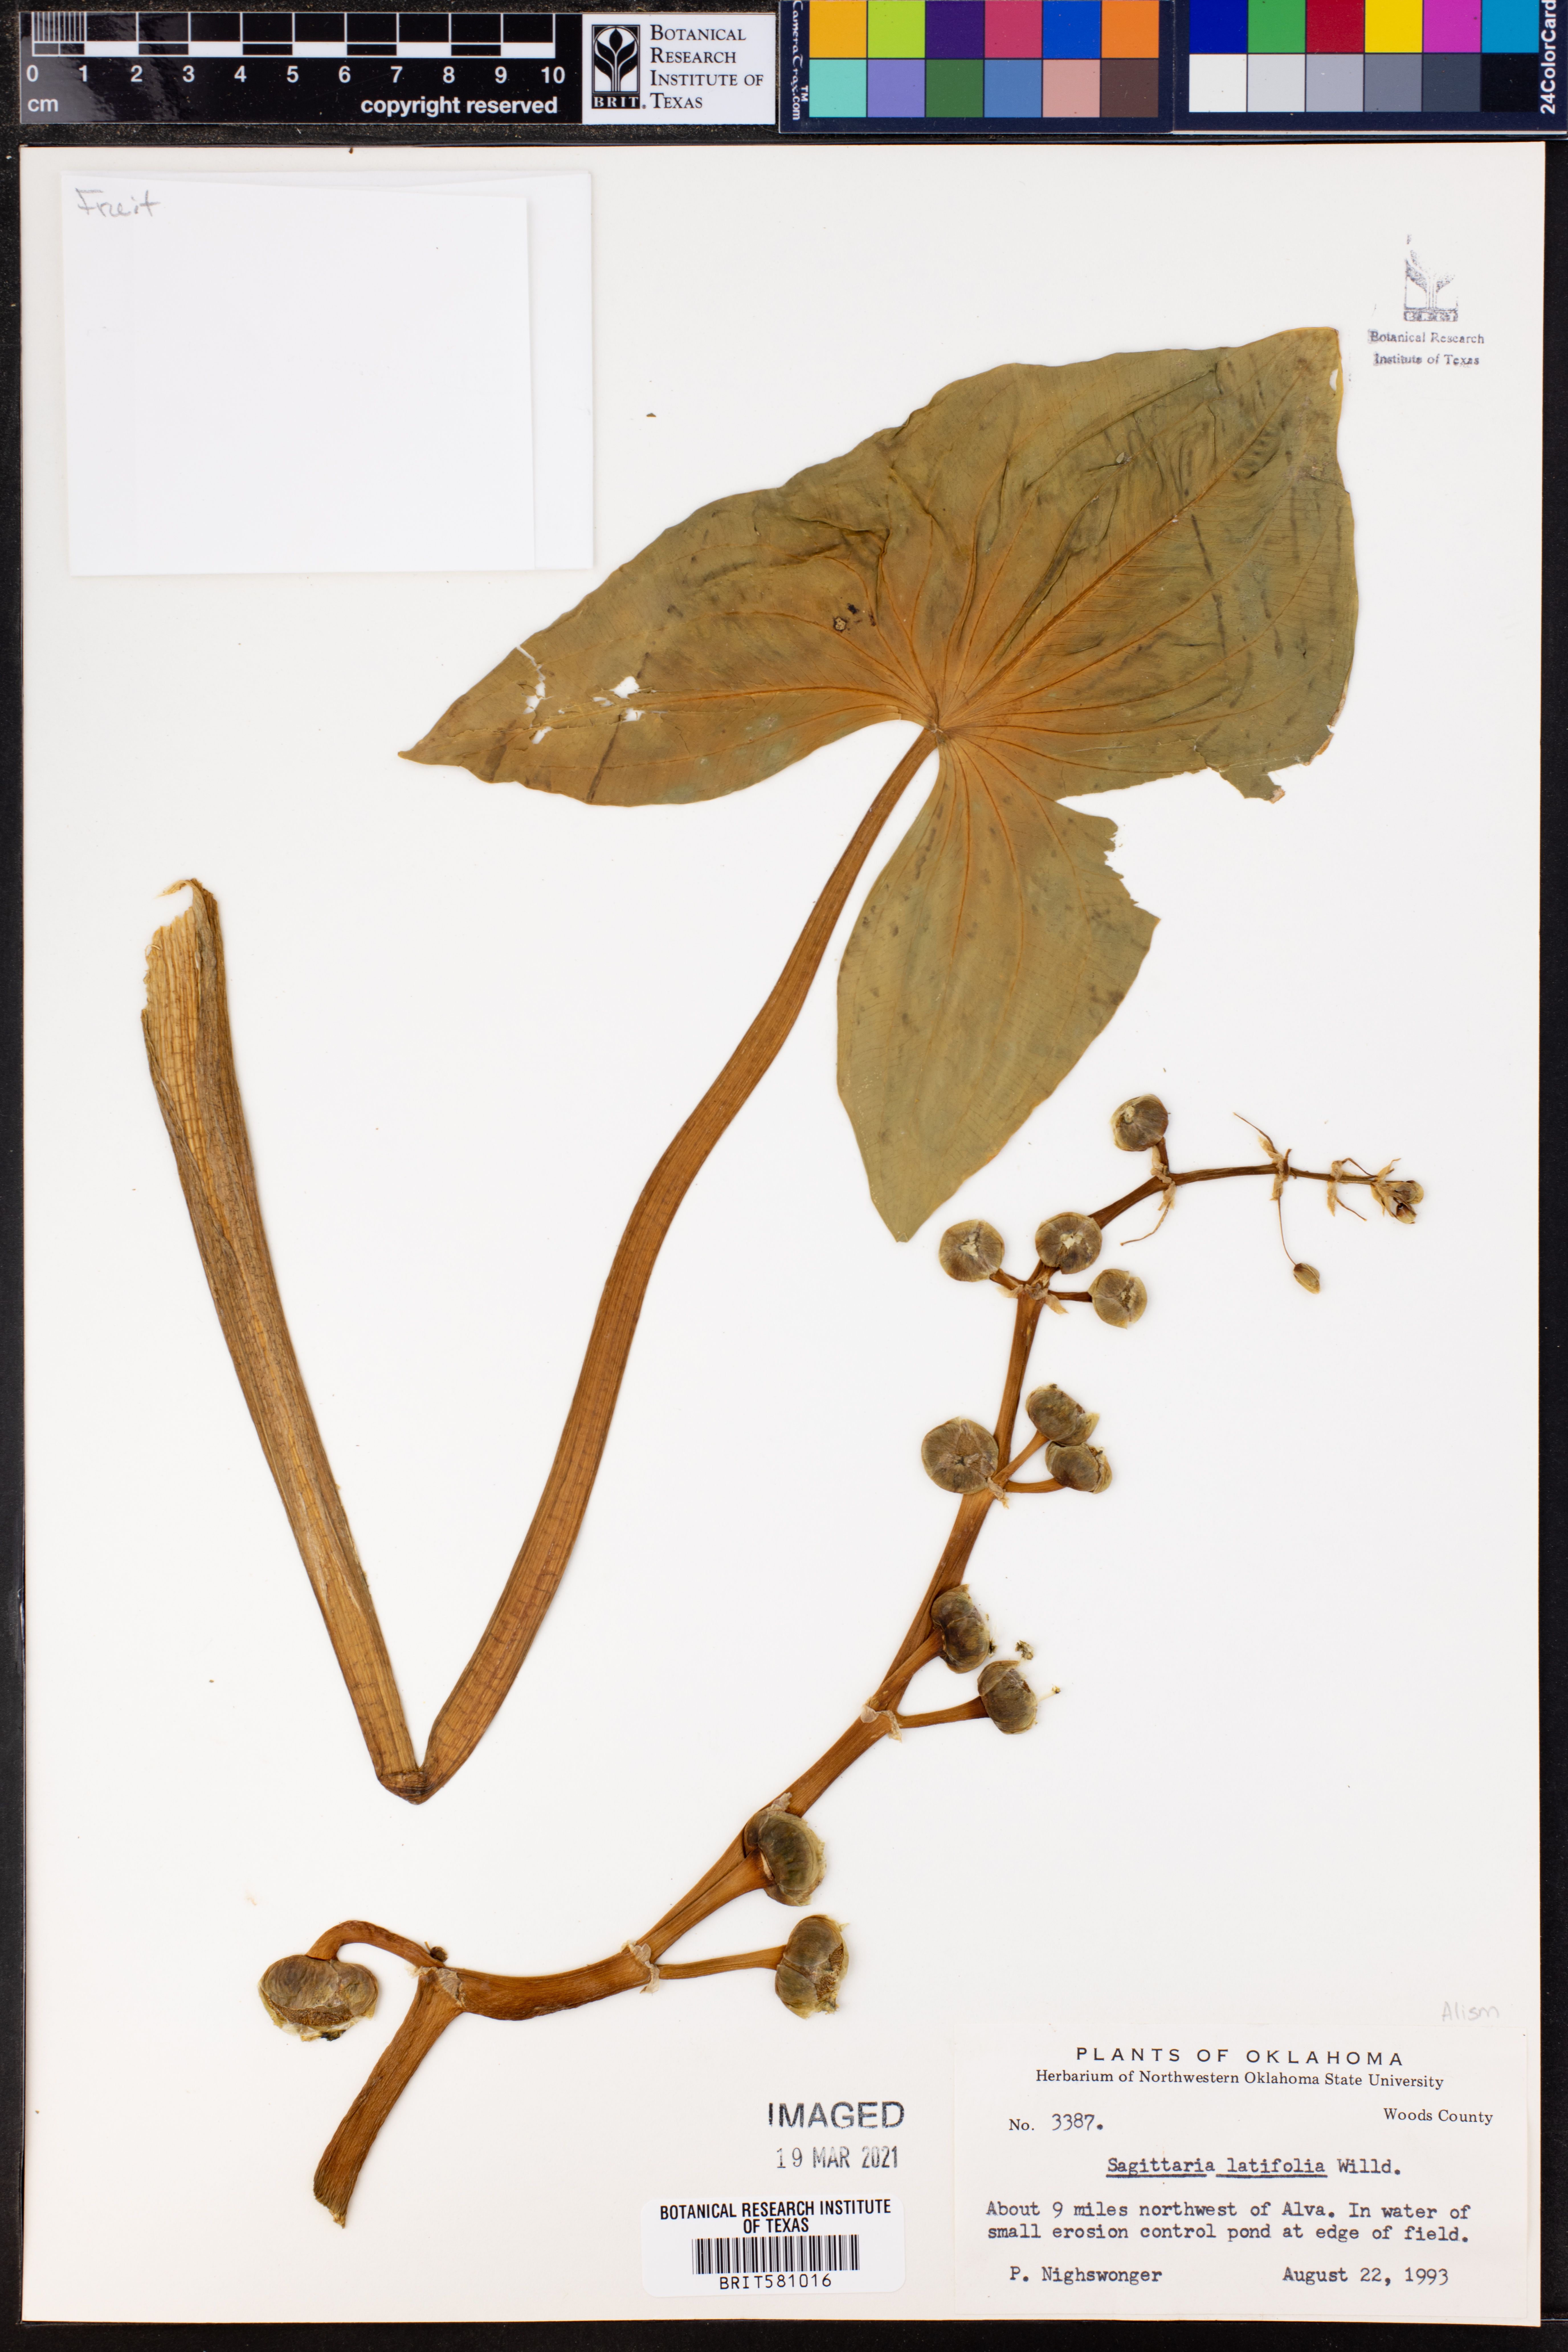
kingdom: Plantae
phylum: Tracheophyta
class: Liliopsida
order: Alismatales
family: Alismataceae
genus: Sagittaria
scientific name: Sagittaria latifolia
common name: Duck-potato
